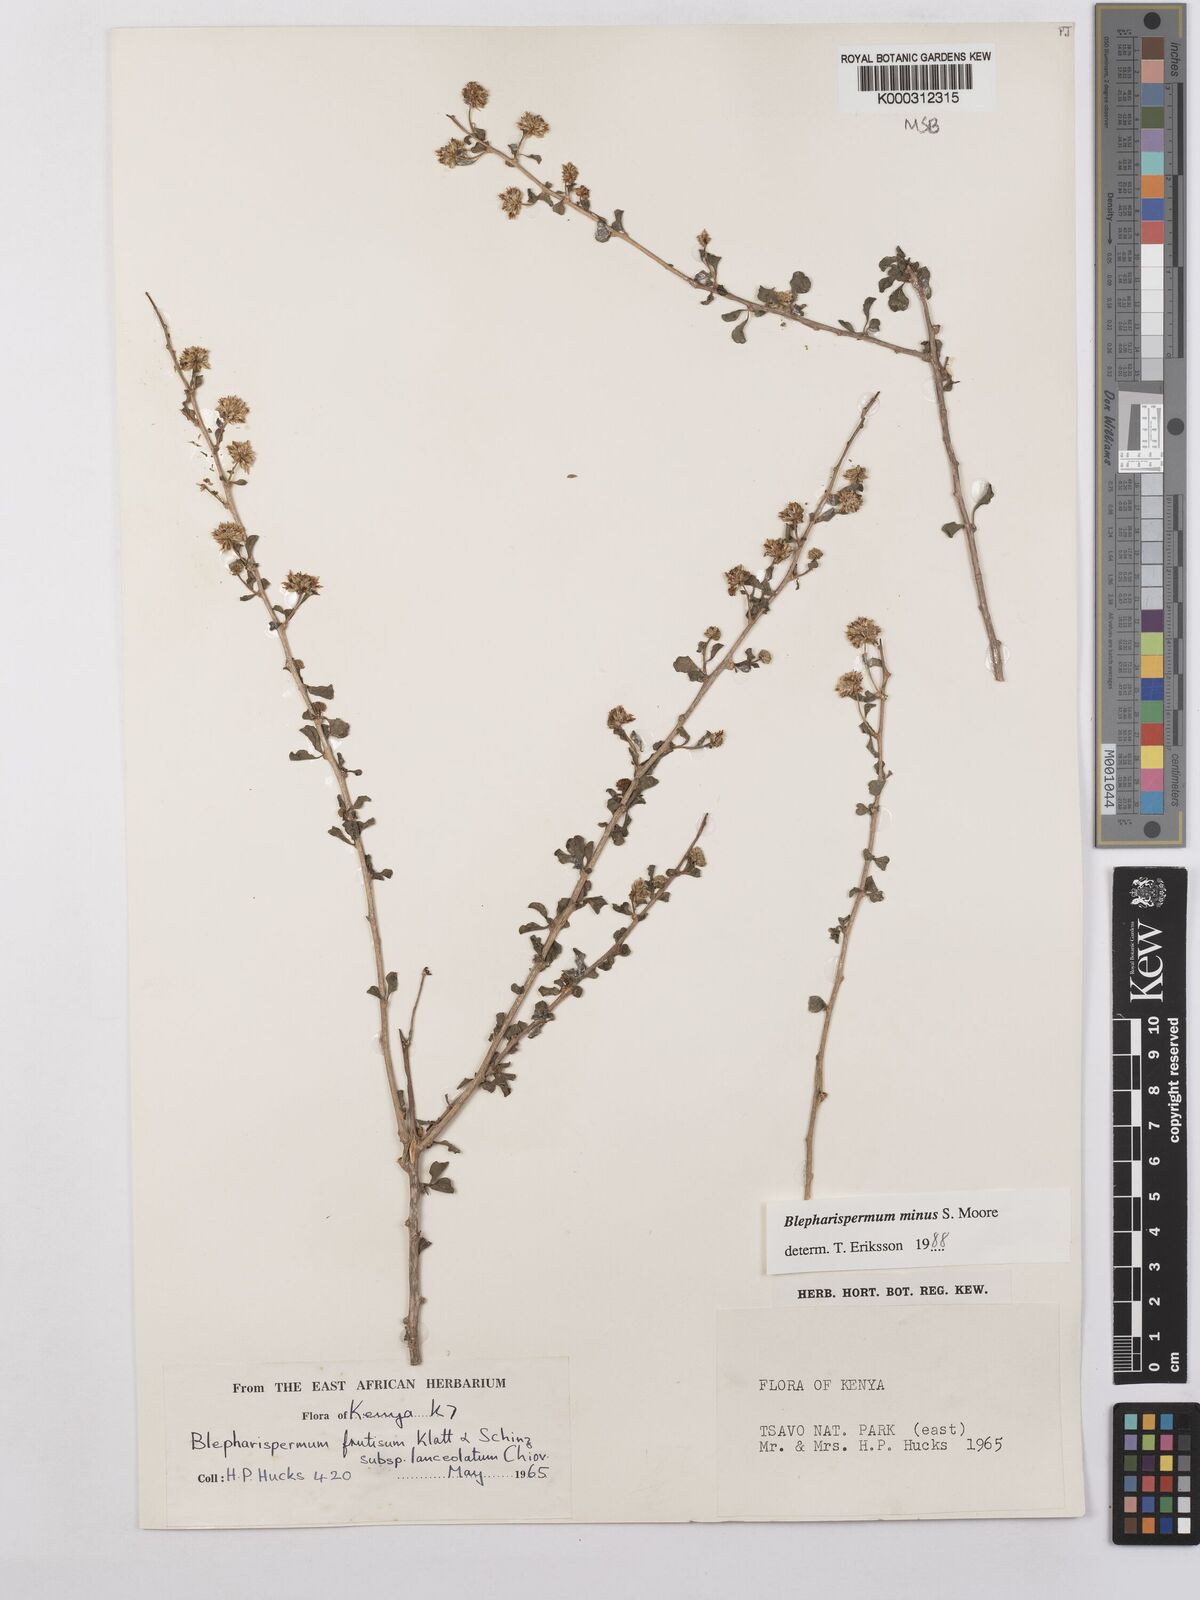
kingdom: Plantae
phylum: Tracheophyta
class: Magnoliopsida
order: Asterales
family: Asteraceae
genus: Blepharispermum
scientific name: Blepharispermum minus
